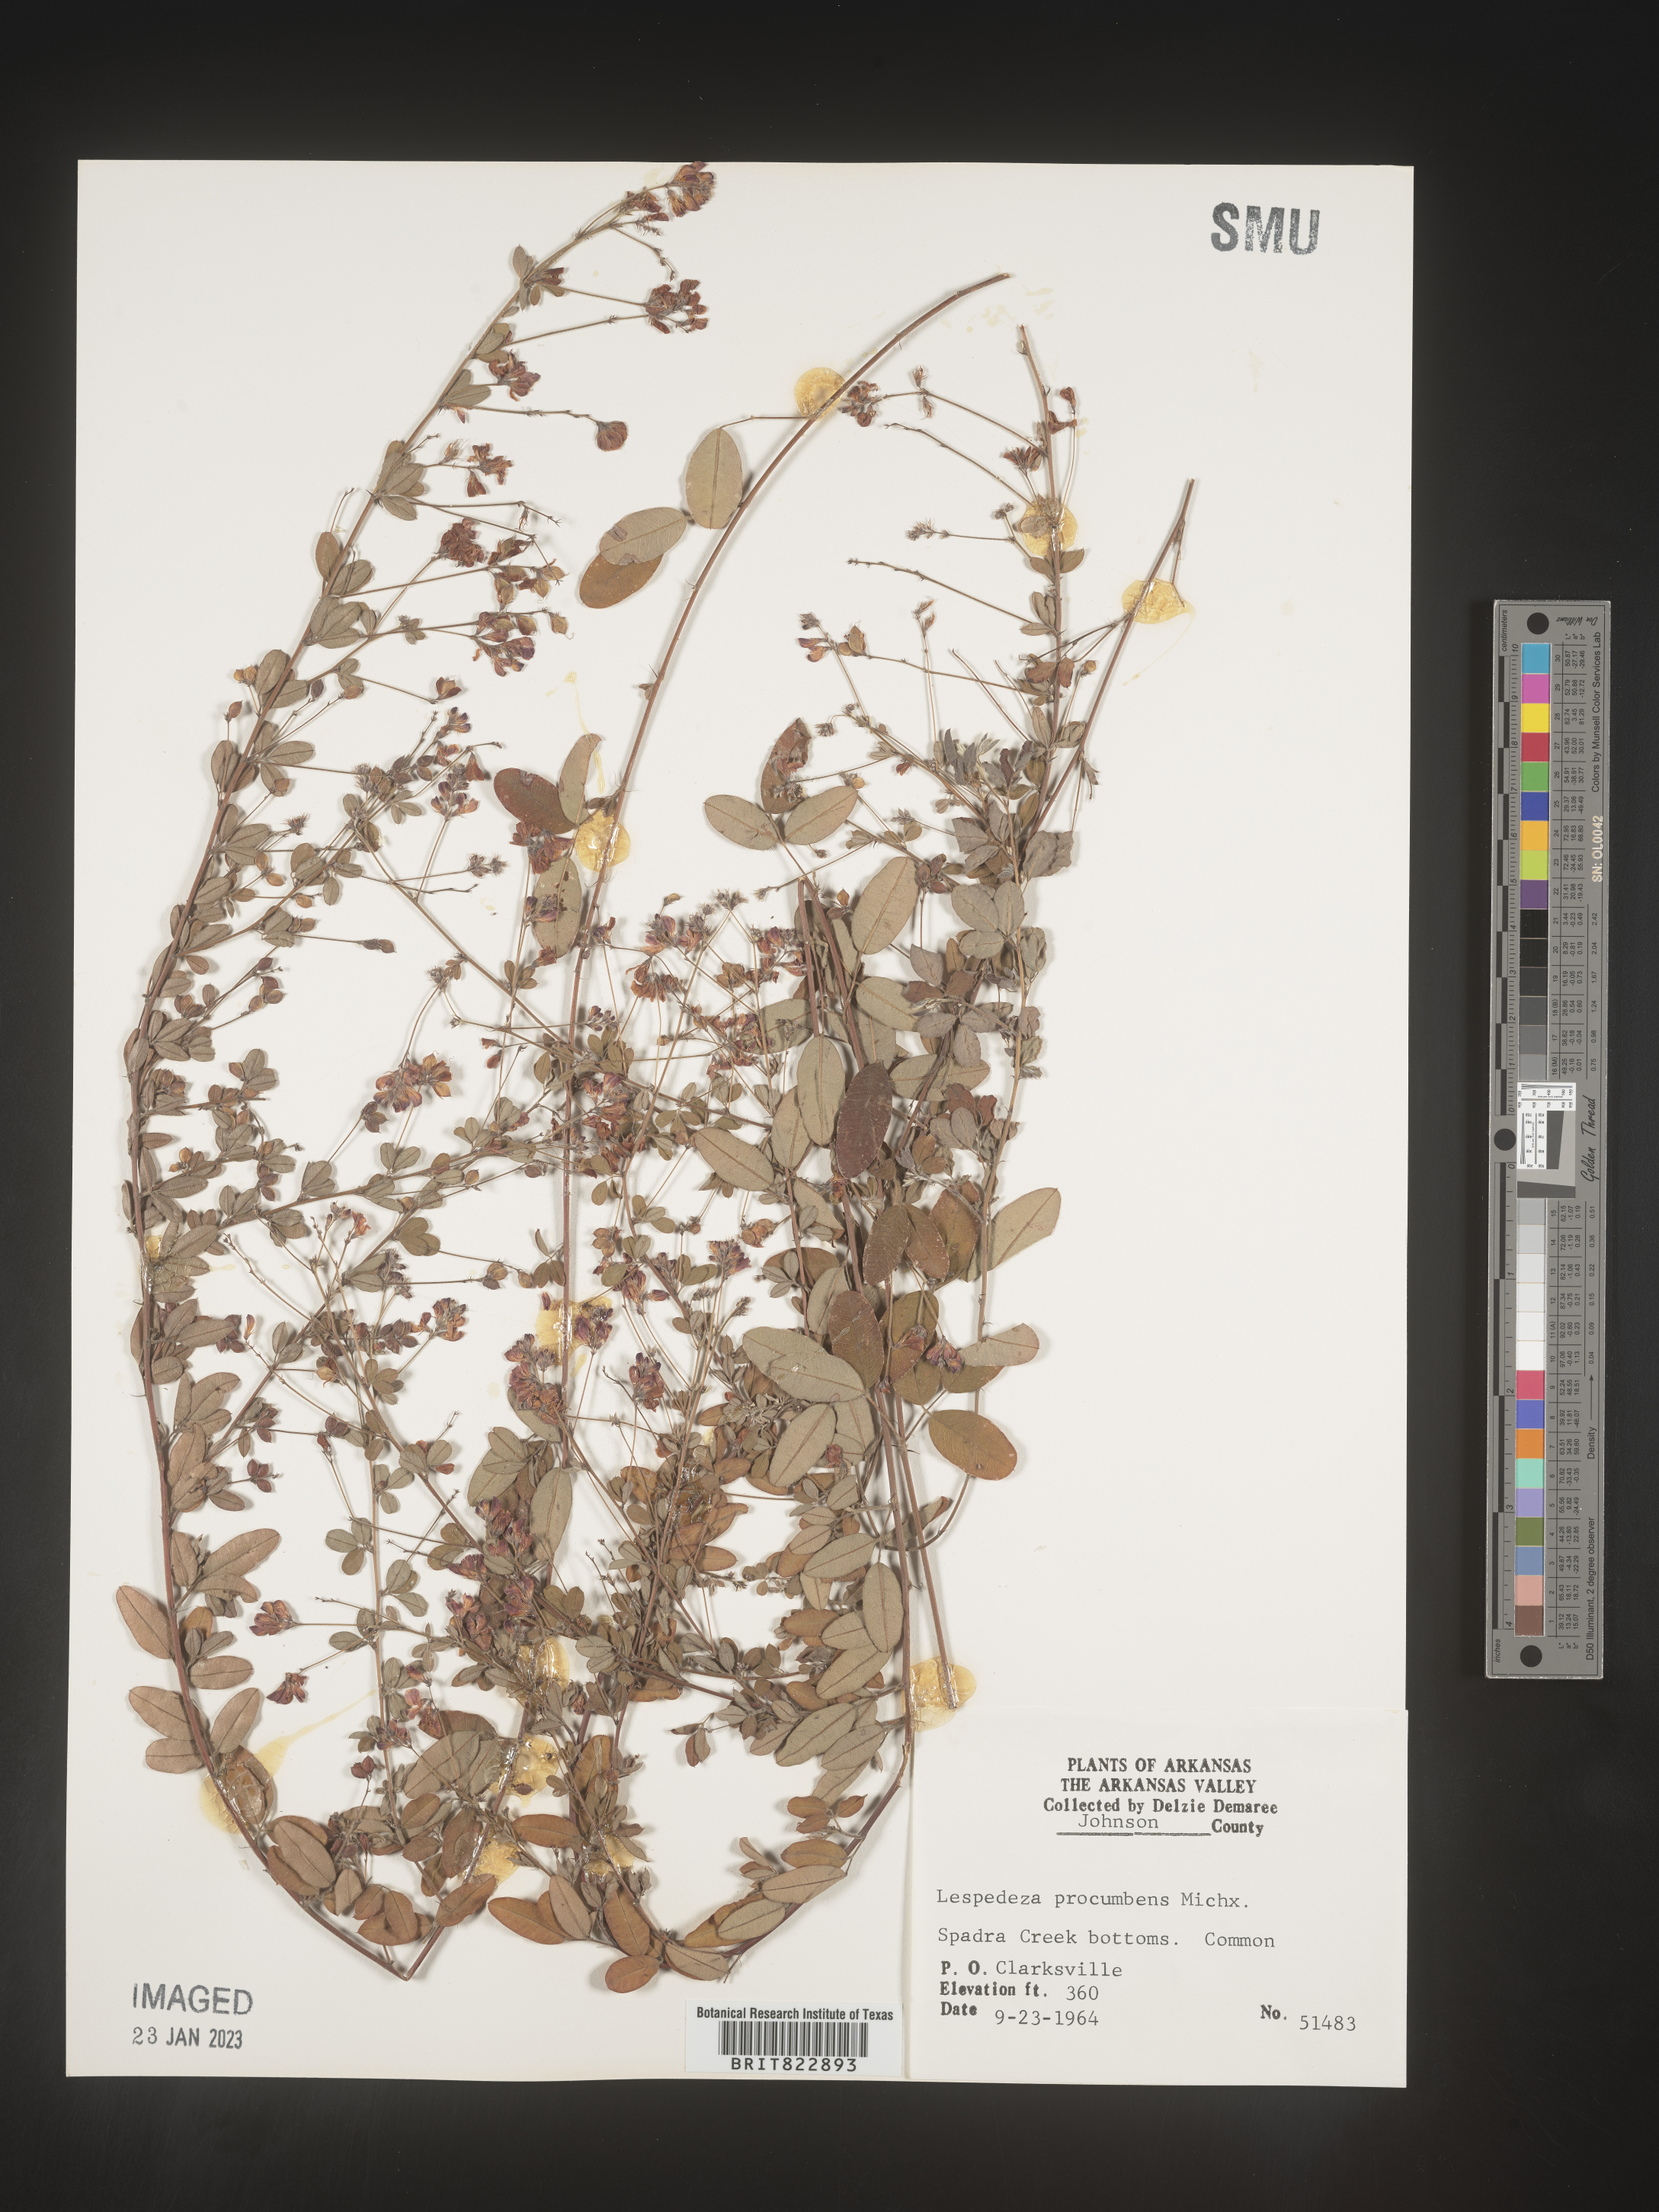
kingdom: Plantae
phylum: Tracheophyta
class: Magnoliopsida
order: Fabales
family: Fabaceae
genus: Lespedeza
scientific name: Lespedeza procumbens
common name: Downy trailing bush-clover
